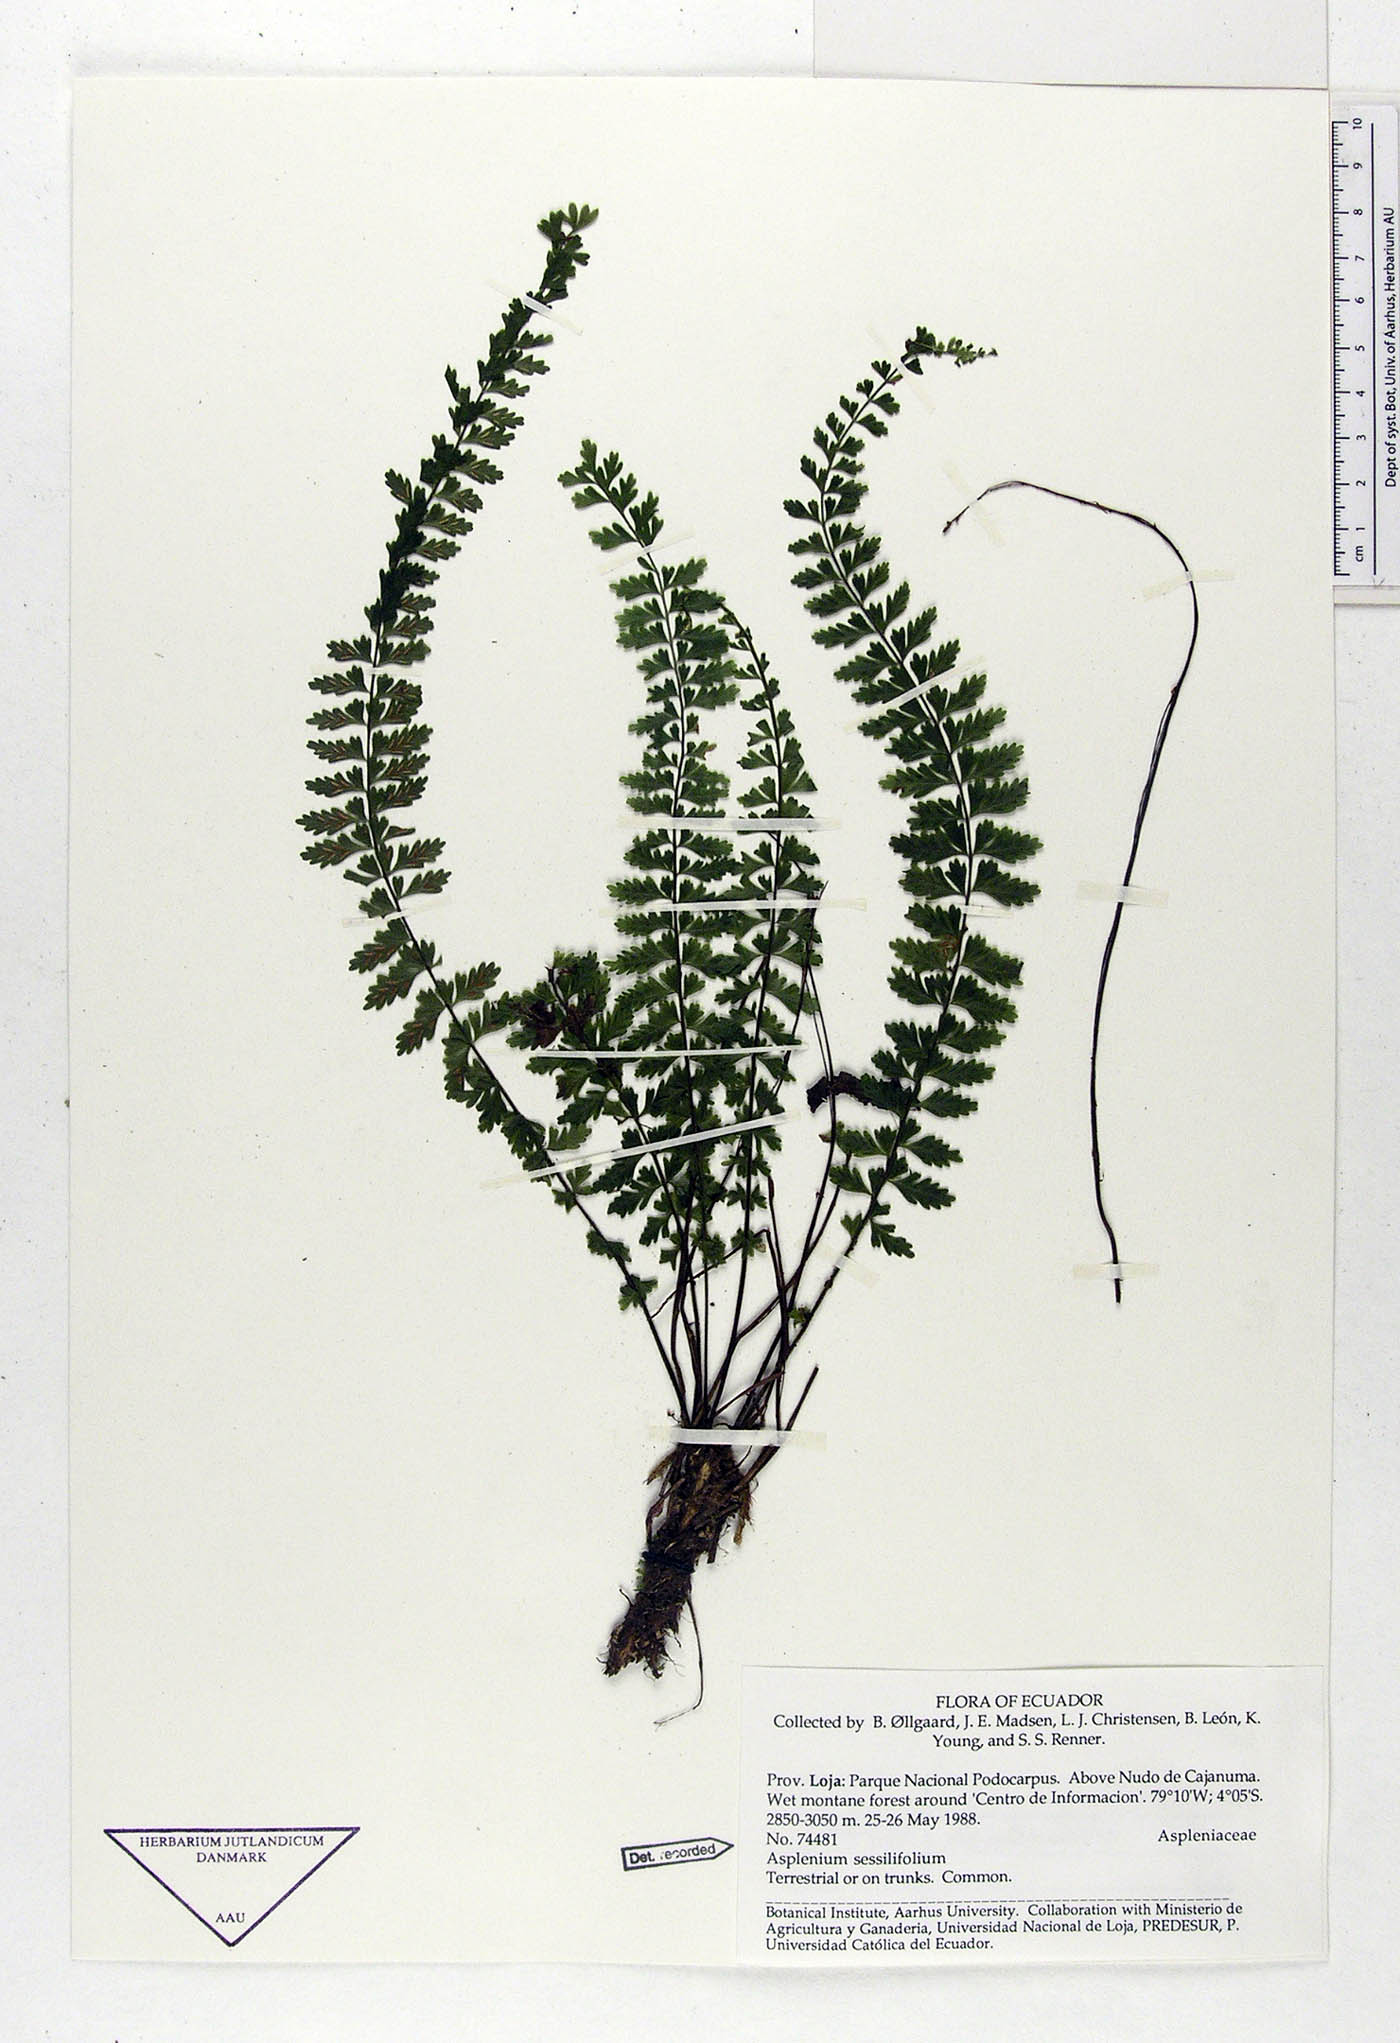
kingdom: Plantae
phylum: Tracheophyta
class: Polypodiopsida
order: Polypodiales
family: Aspleniaceae
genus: Asplenium
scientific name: Asplenium sessilifolium
